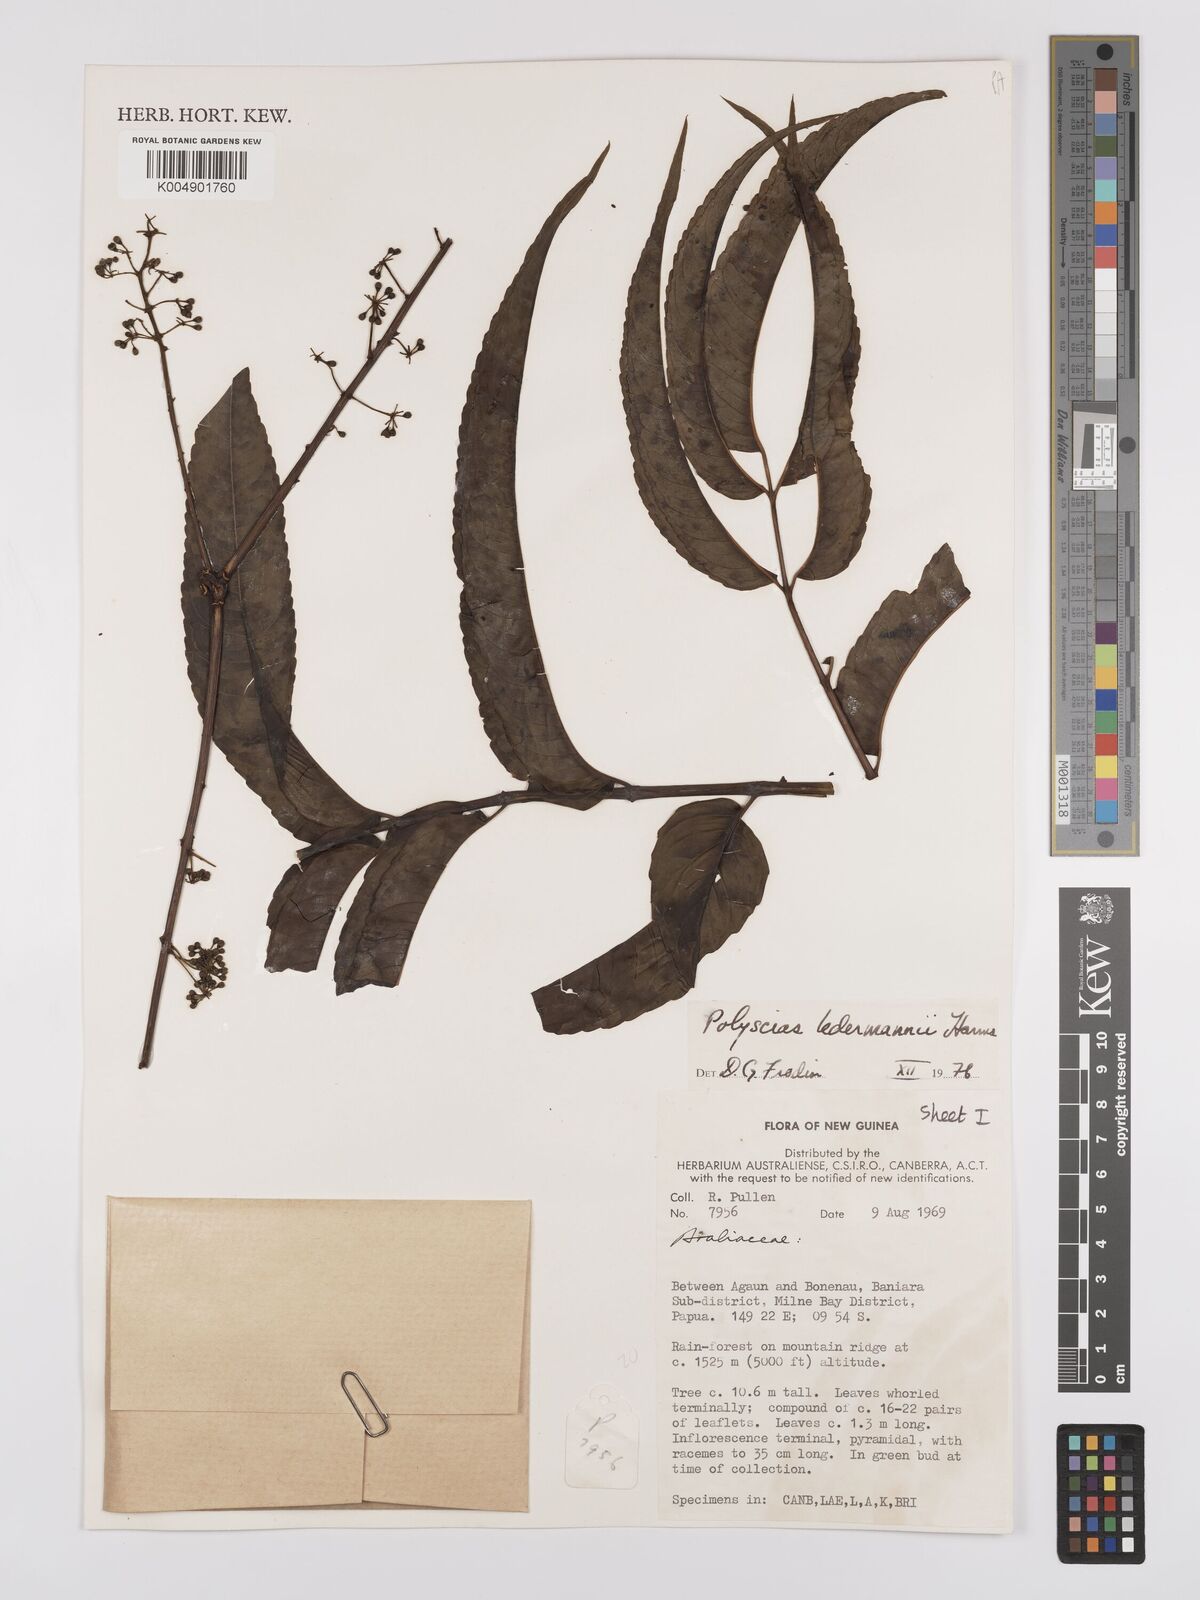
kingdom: Plantae
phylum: Tracheophyta
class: Magnoliopsida
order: Apiales
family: Araliaceae
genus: Polyscias
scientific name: Polyscias ledermannii
